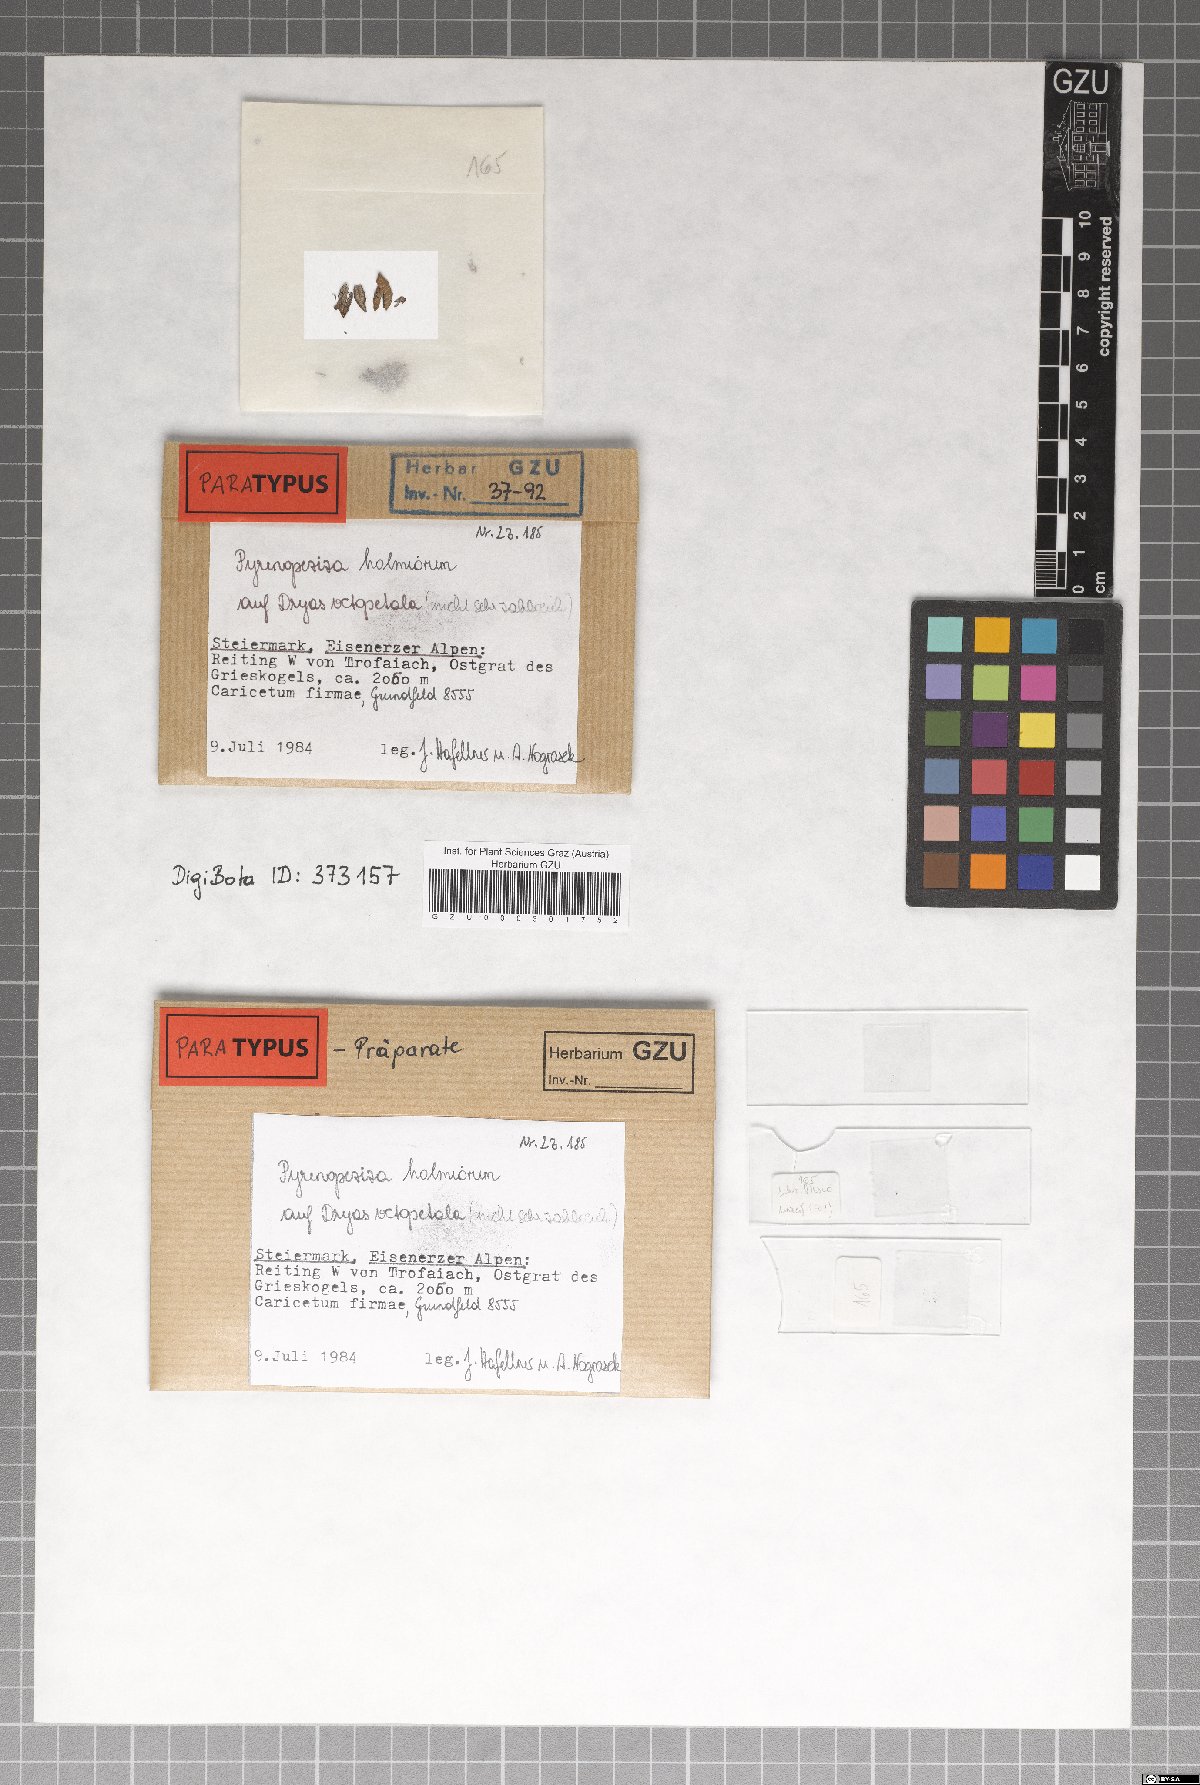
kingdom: Fungi
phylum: Ascomycota
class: Leotiomycetes
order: Helotiales
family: Ploettnerulaceae
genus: Pyrenopeziza
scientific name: Pyrenopeziza holmiorum
